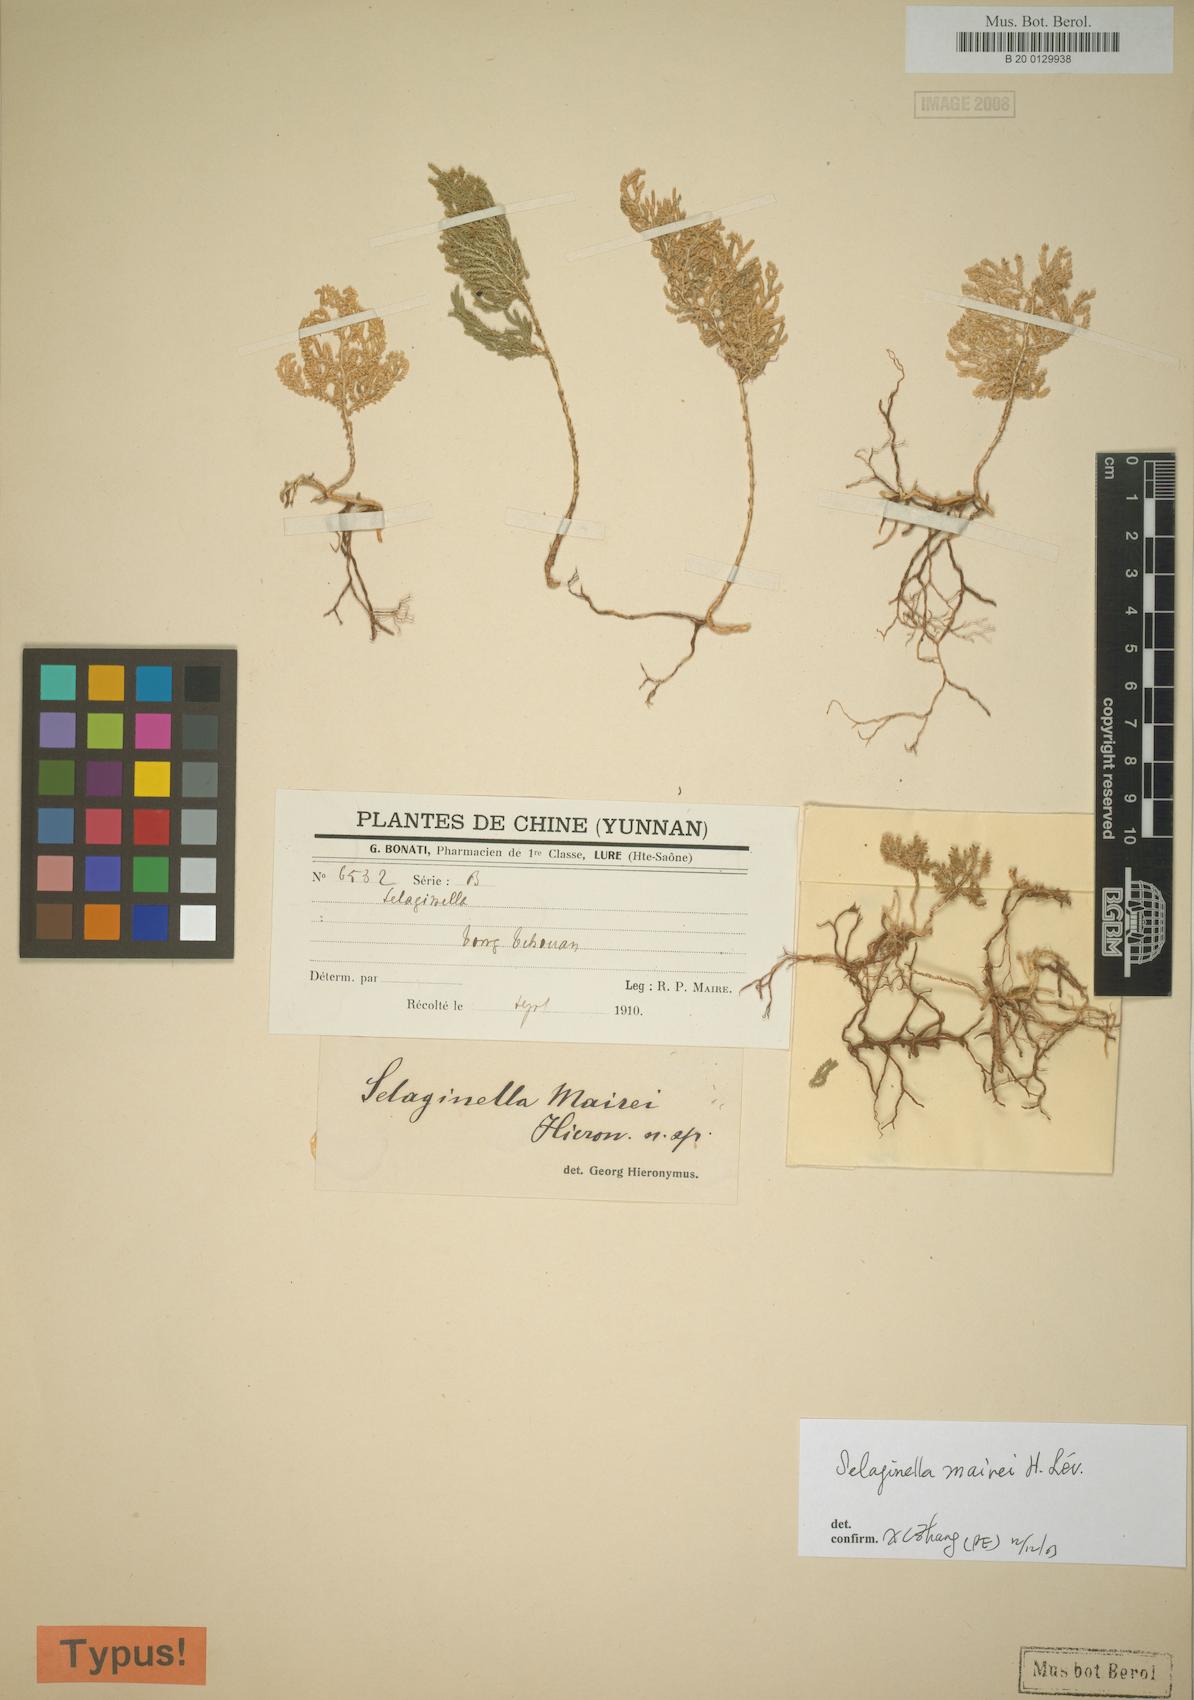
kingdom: Plantae
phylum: Tracheophyta
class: Lycopodiopsida
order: Selaginellales
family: Selaginellaceae
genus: Selaginella
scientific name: Selaginella mairei
